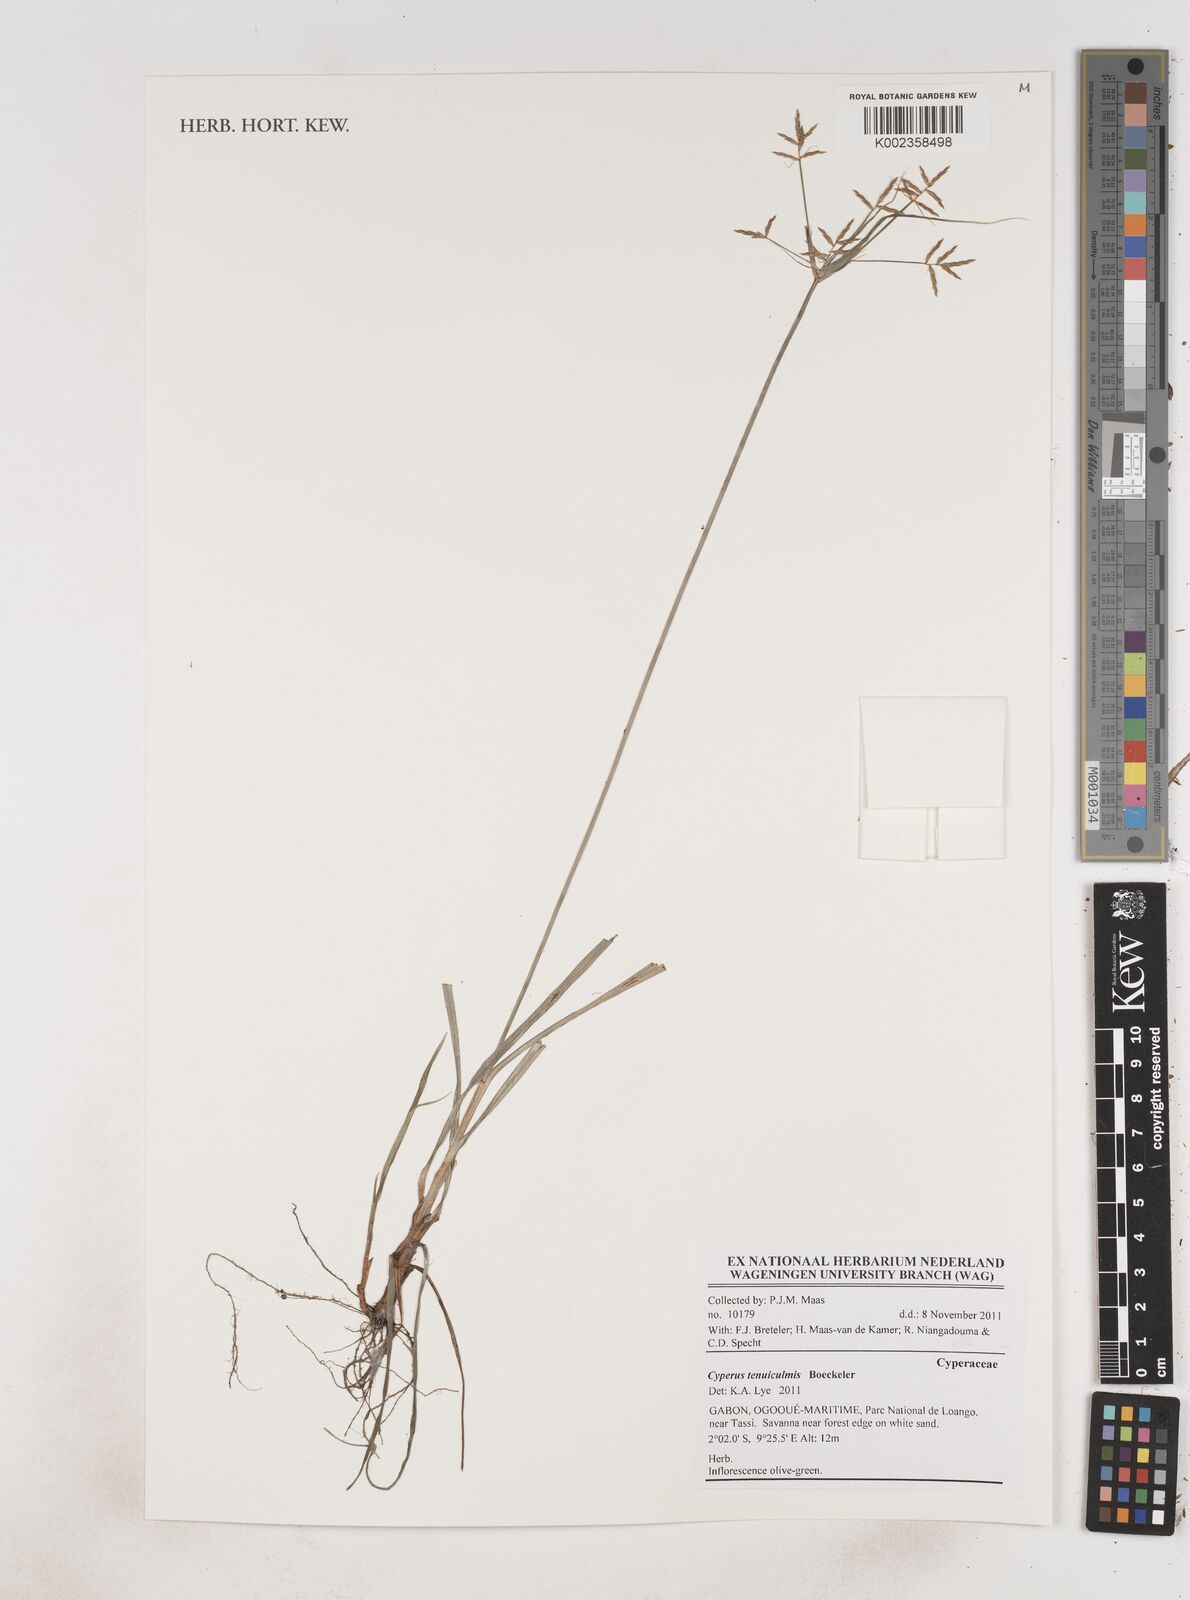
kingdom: Plantae
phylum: Tracheophyta
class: Liliopsida
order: Poales
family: Cyperaceae
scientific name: Cyperaceae
